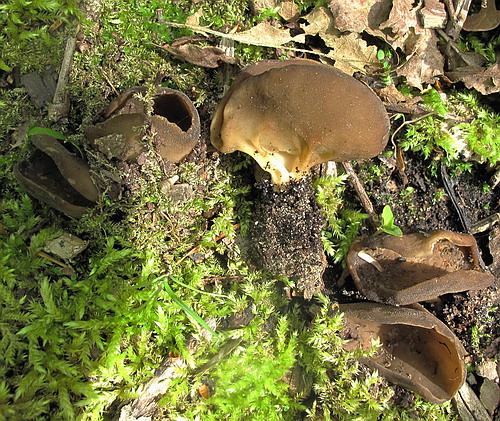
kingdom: Fungi
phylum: Ascomycota
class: Pezizomycetes
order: Pezizales
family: Helvellaceae
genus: Helvella
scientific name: Helvella acetabulum
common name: pokal-foldhat
